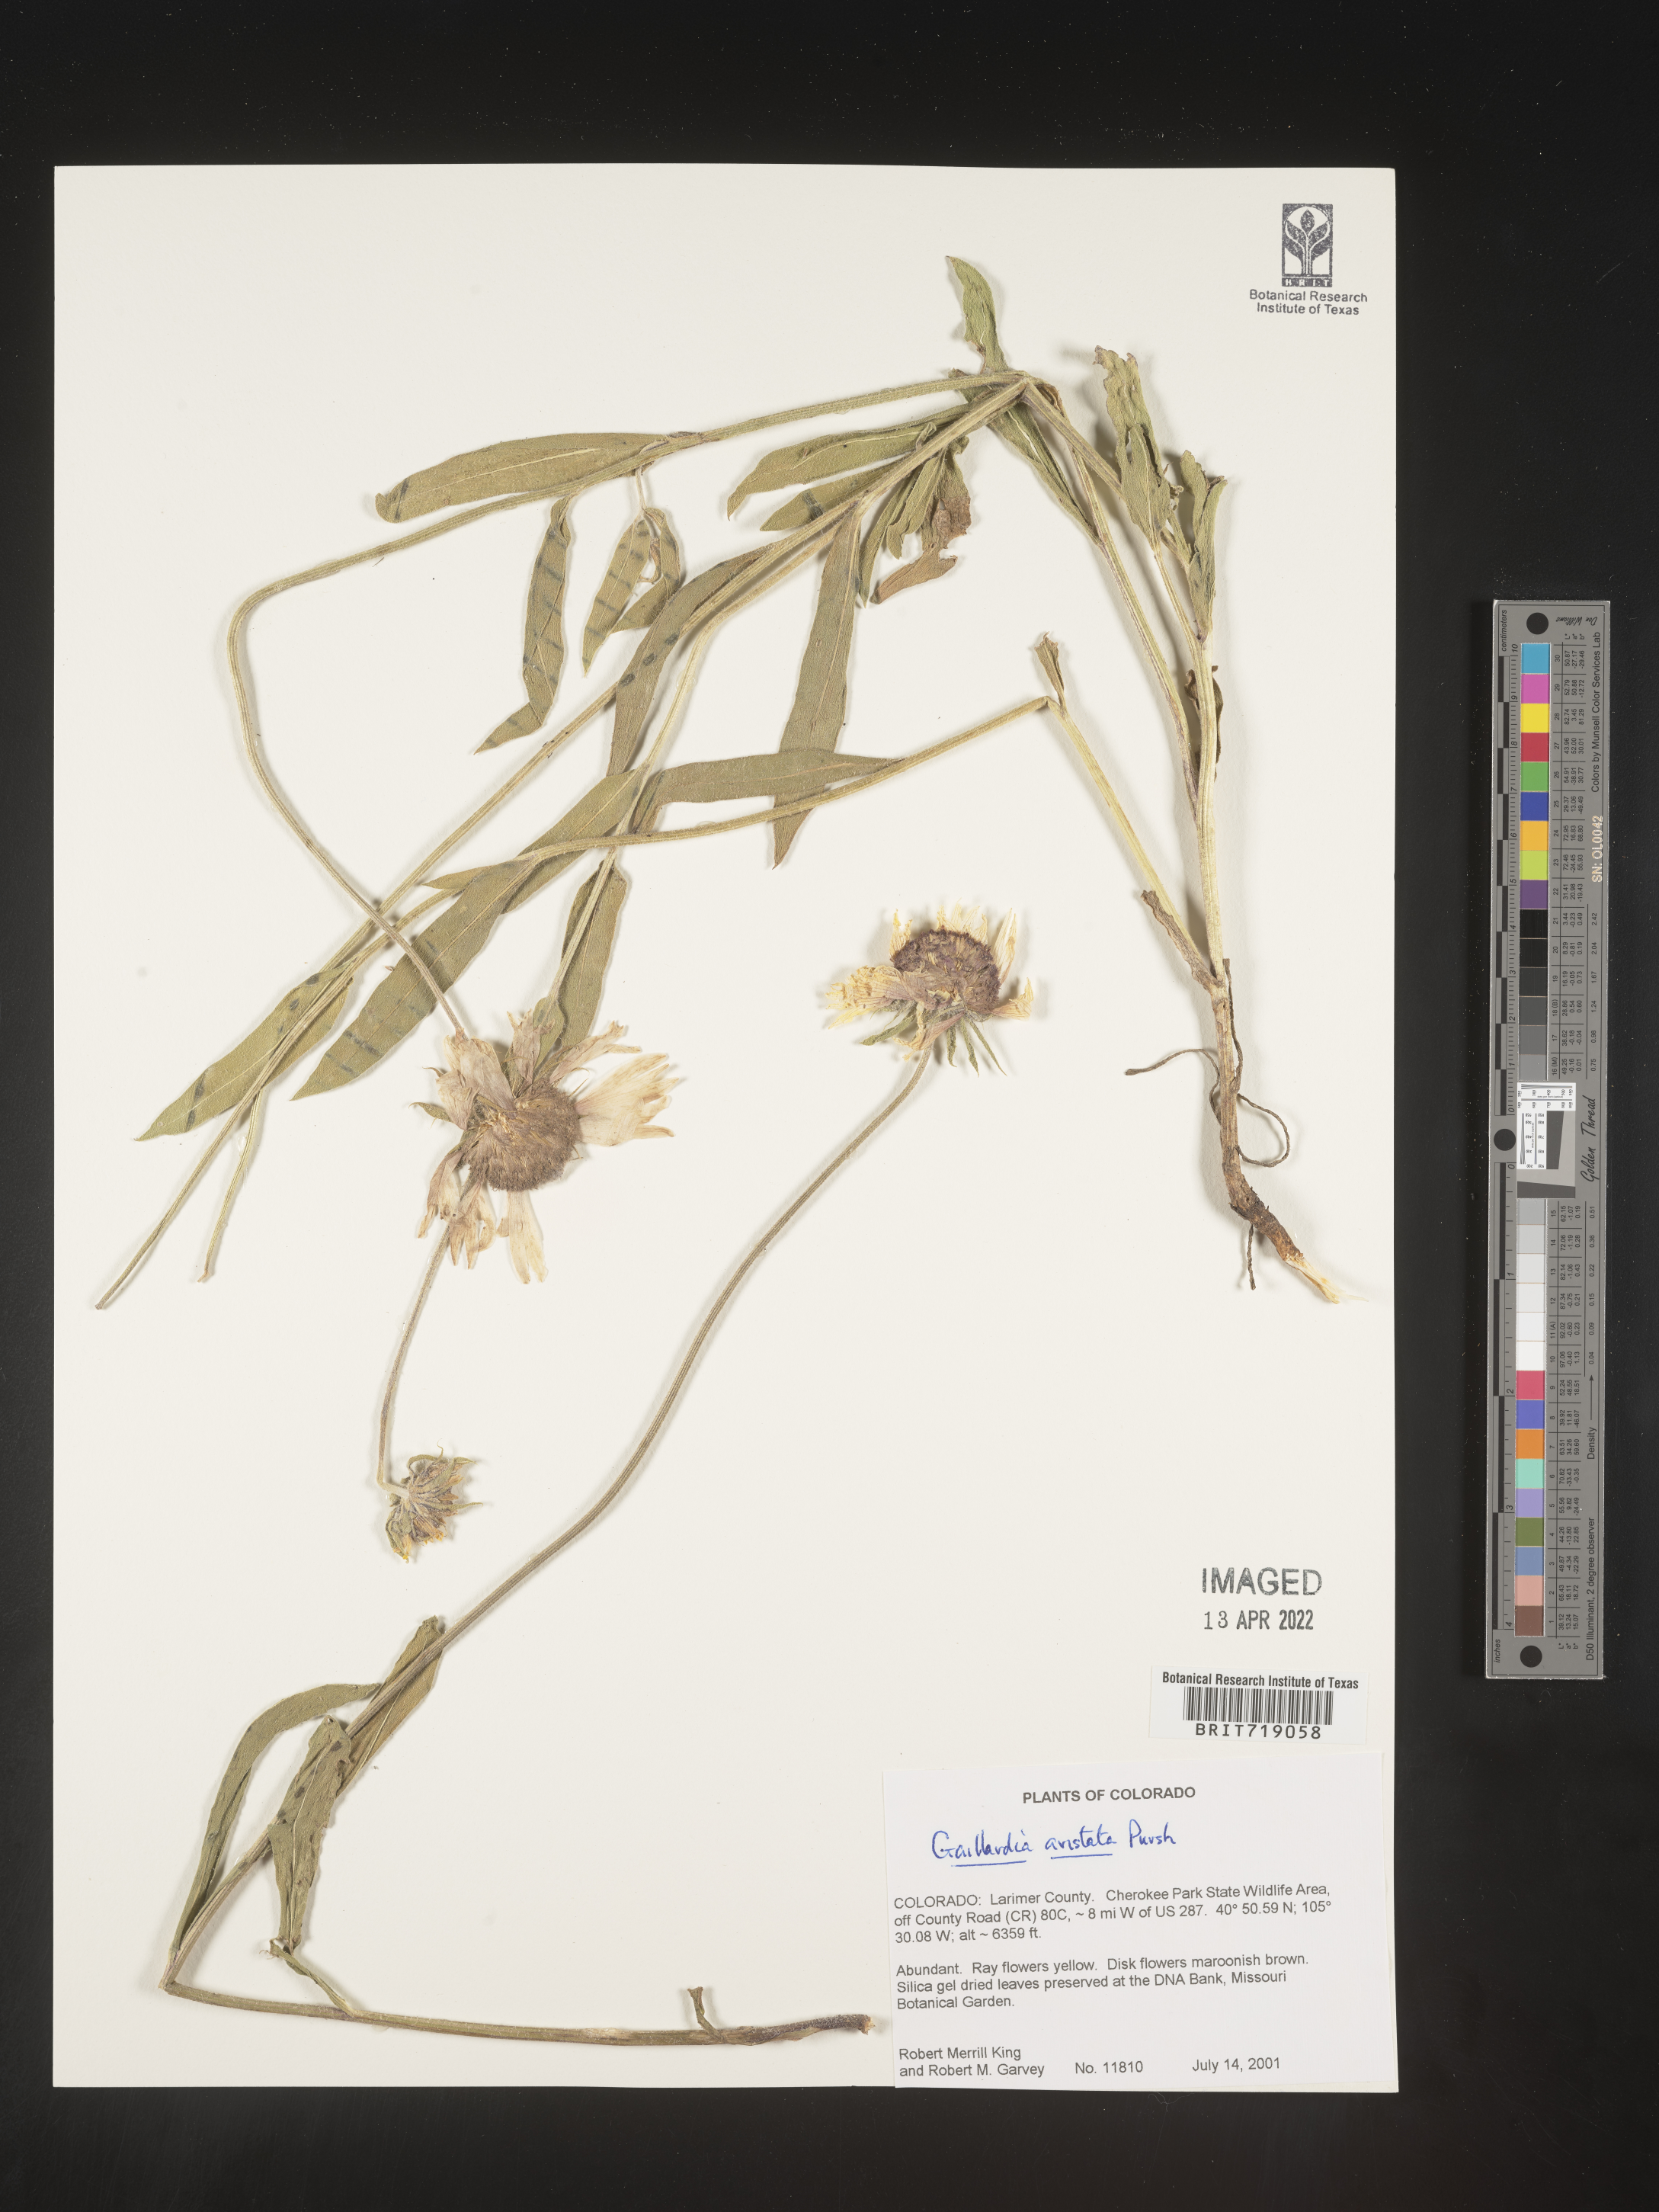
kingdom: Plantae
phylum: Tracheophyta
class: Magnoliopsida
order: Asterales
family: Asteraceae
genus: Gaillardia
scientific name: Gaillardia aristata
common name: Blanket-flower
